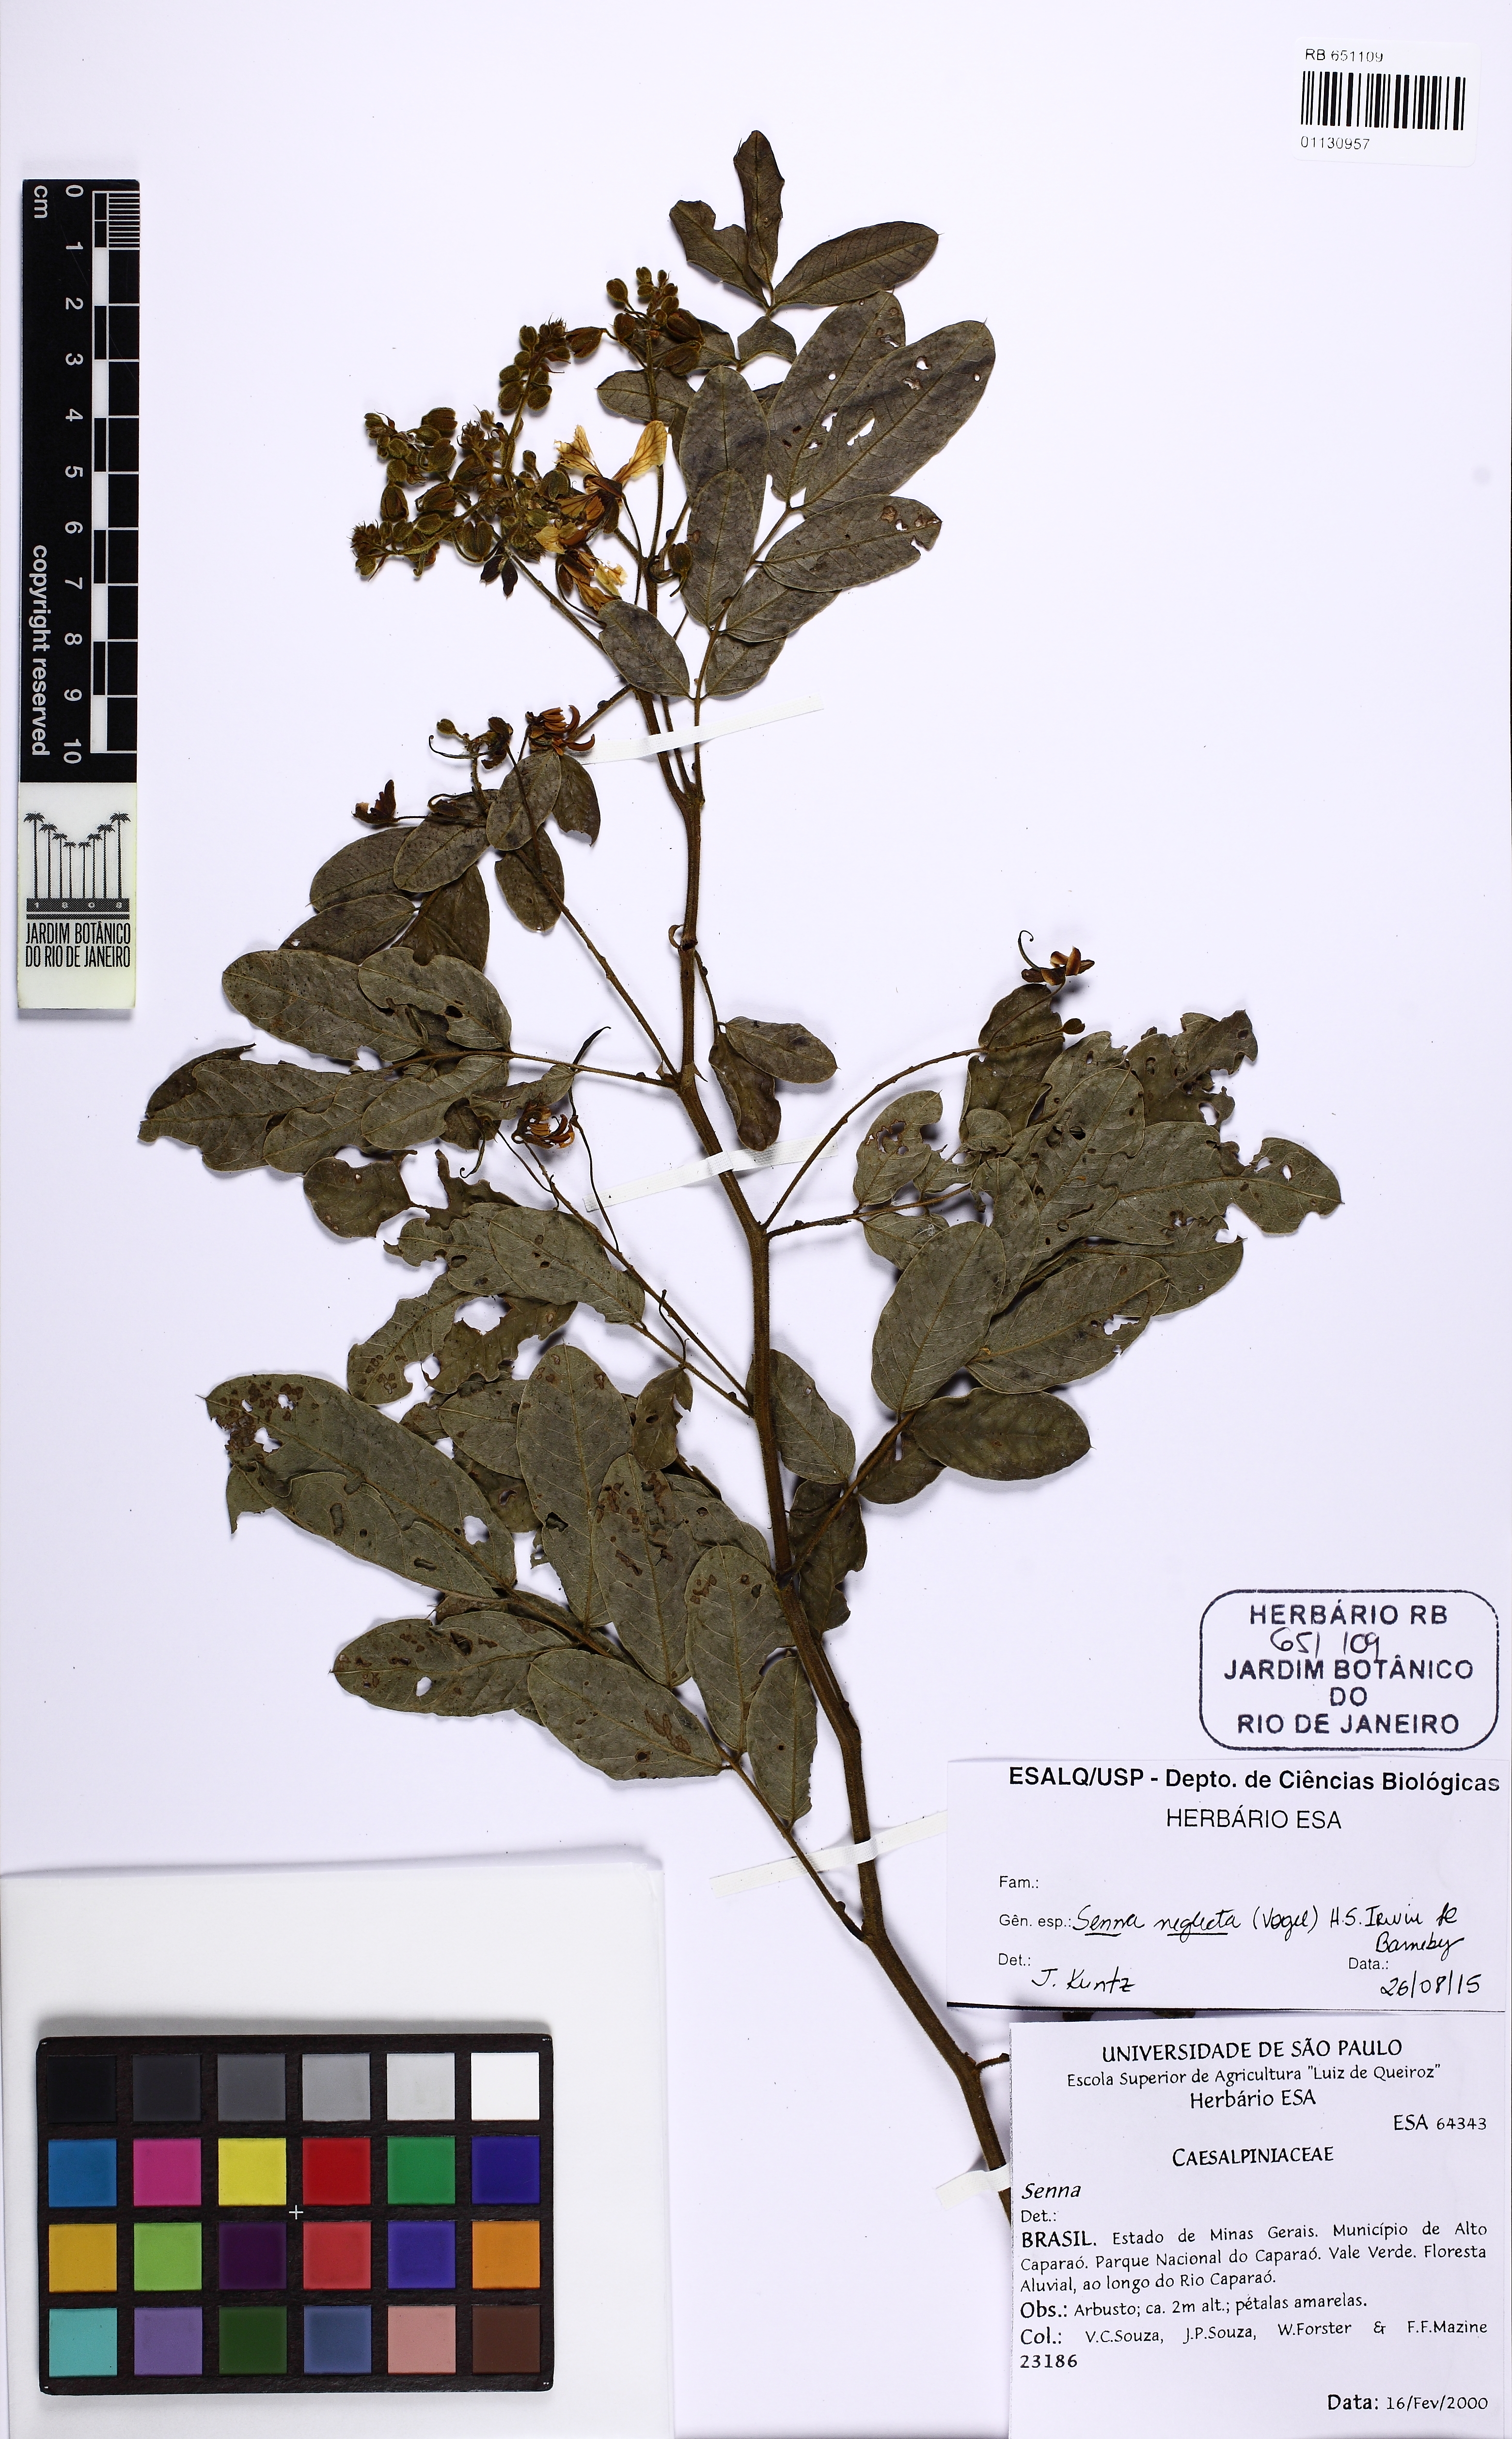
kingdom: Plantae
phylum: Tracheophyta
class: Magnoliopsida
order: Fabales
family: Fabaceae
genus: Senna
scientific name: Senna neglecta
